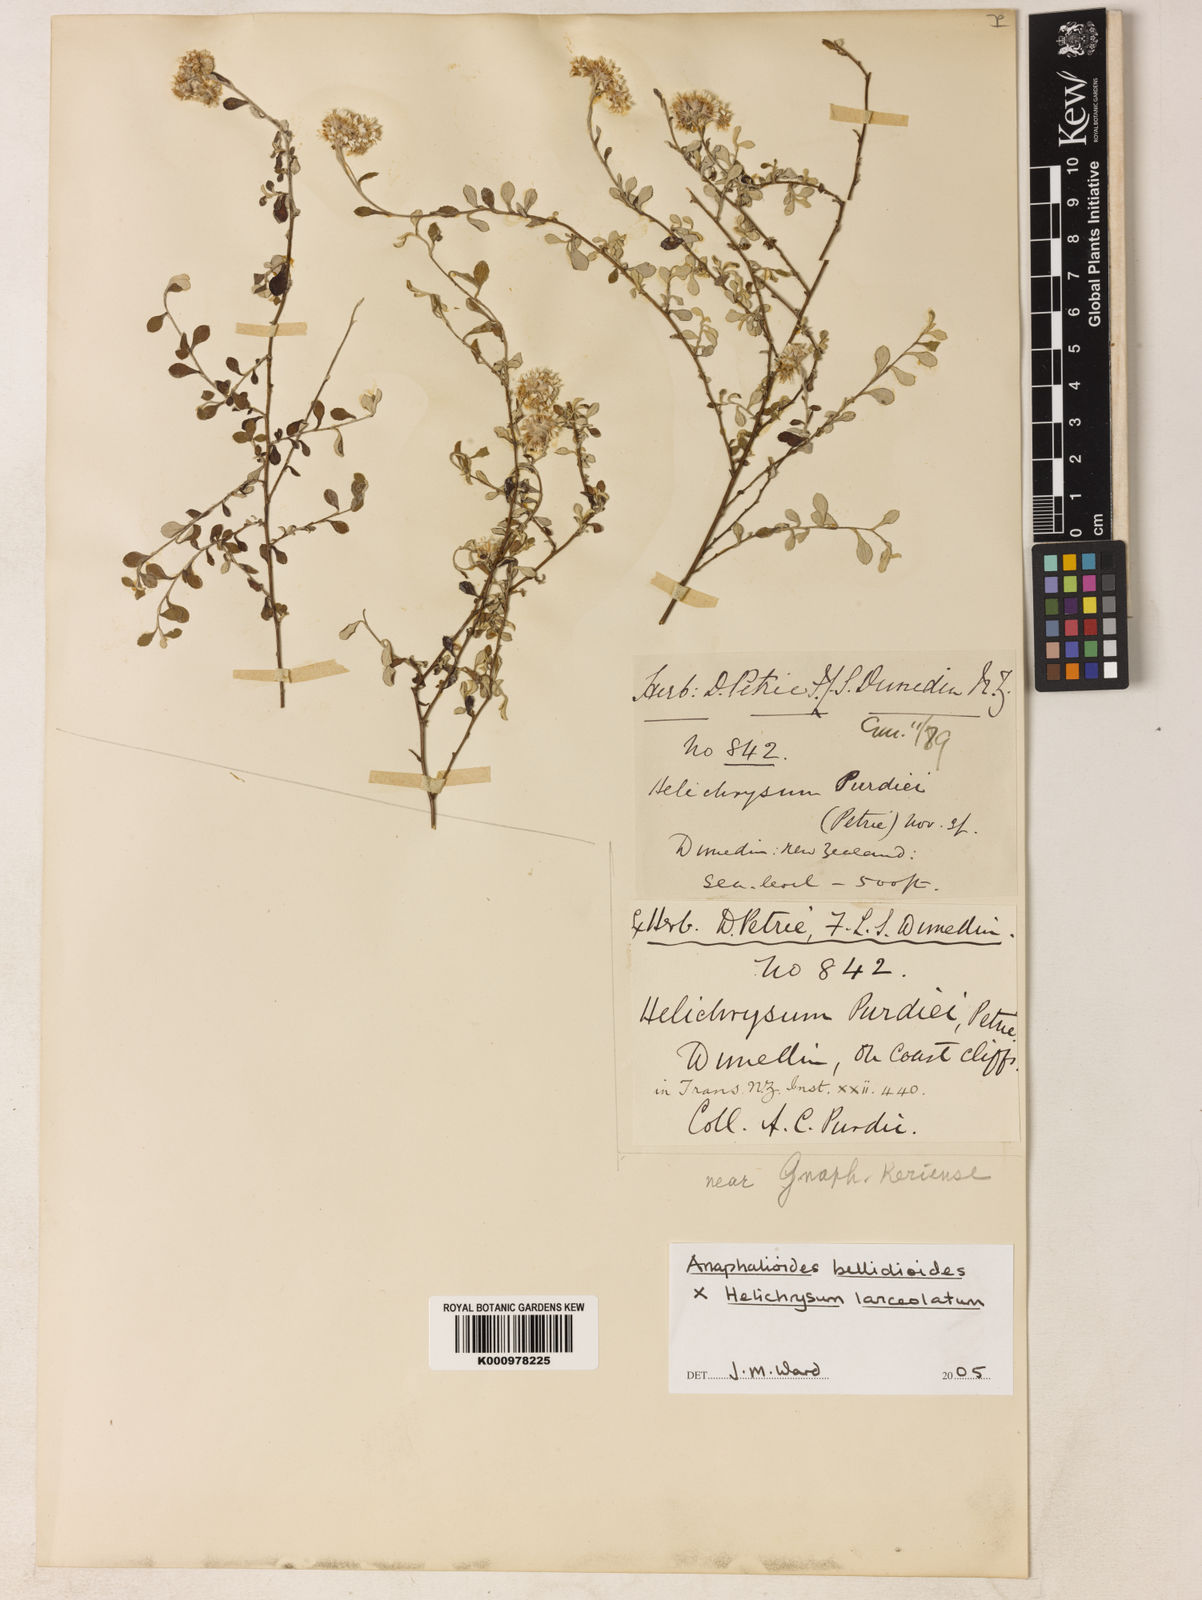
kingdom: Plantae
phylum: Tracheophyta
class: Magnoliopsida
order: Asterales
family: Asteraceae
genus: Helichrysum
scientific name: Helichrysum purdiei
